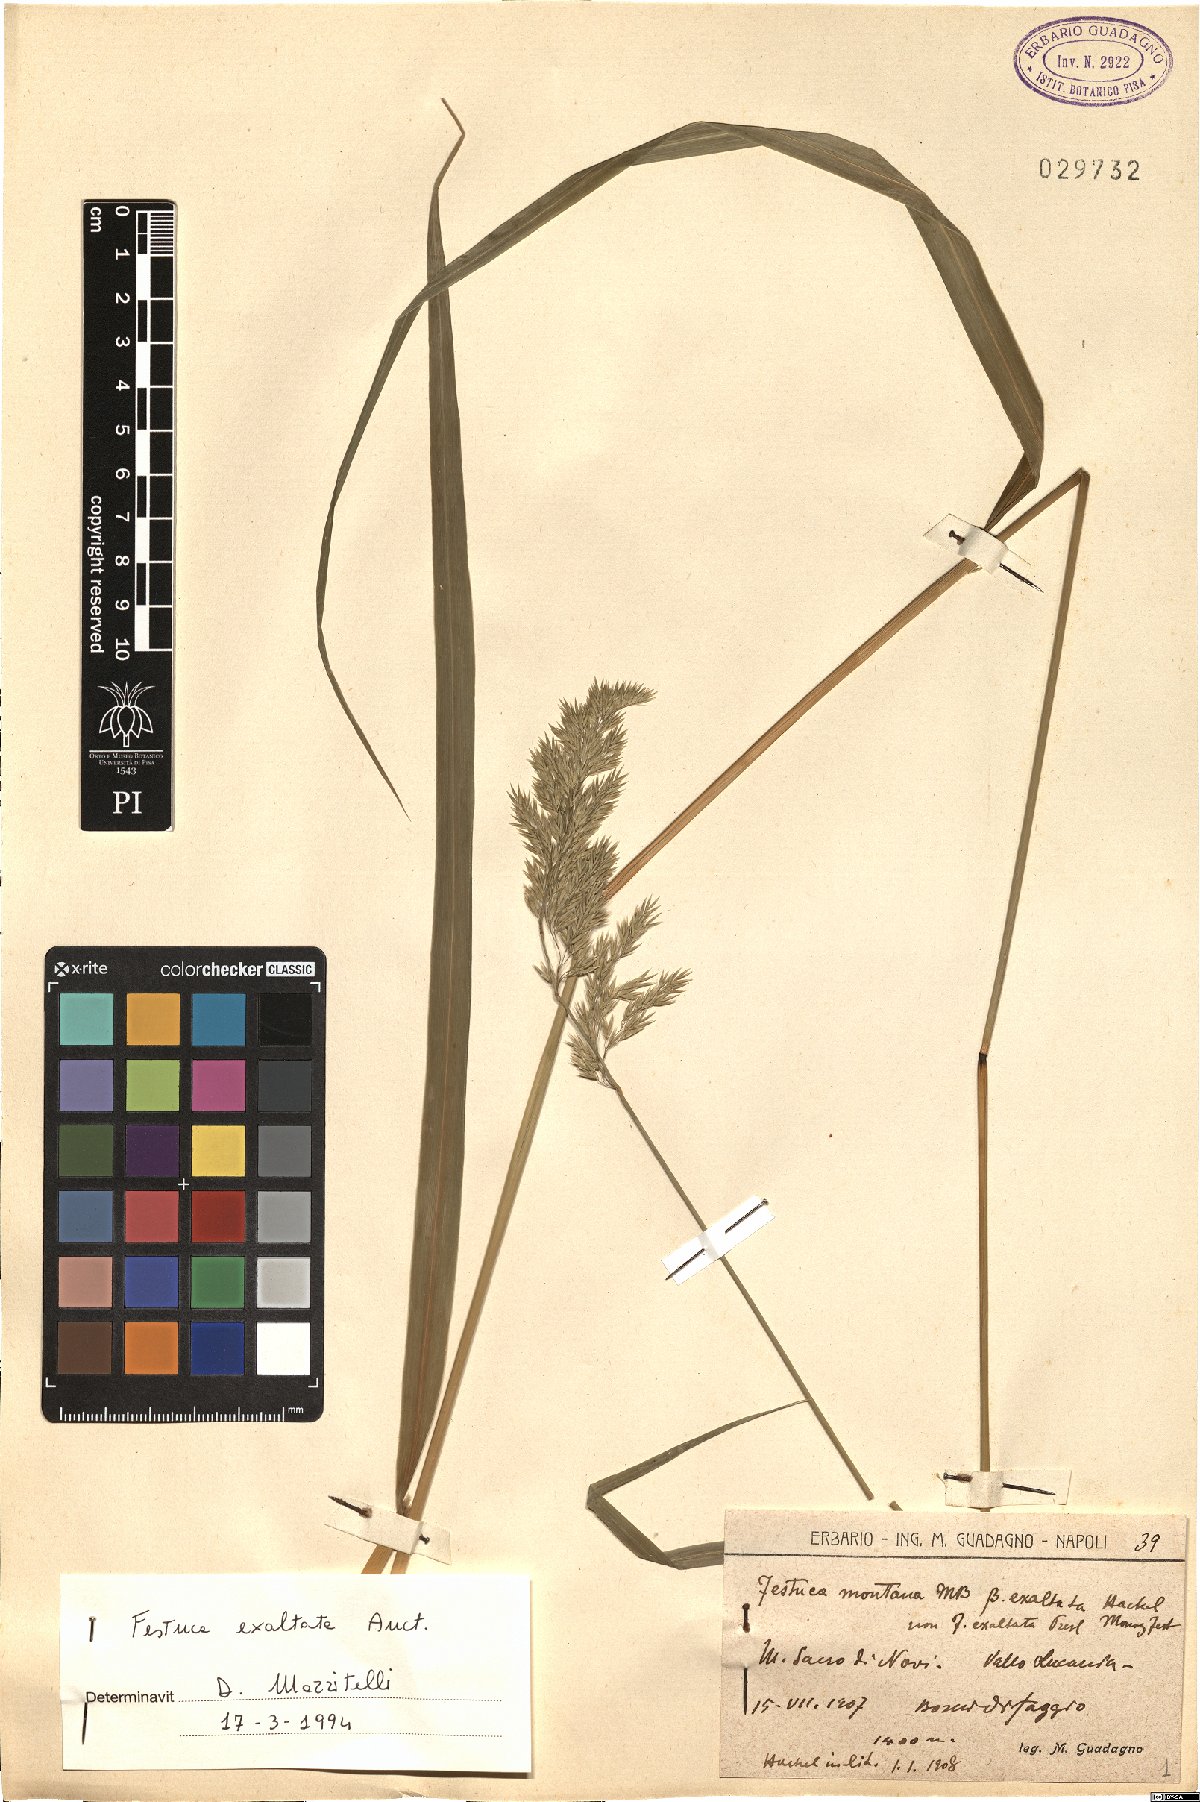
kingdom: Plantae
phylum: Tracheophyta
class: Liliopsida
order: Poales
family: Poaceae
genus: Festuca
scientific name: Festuca drymeja
